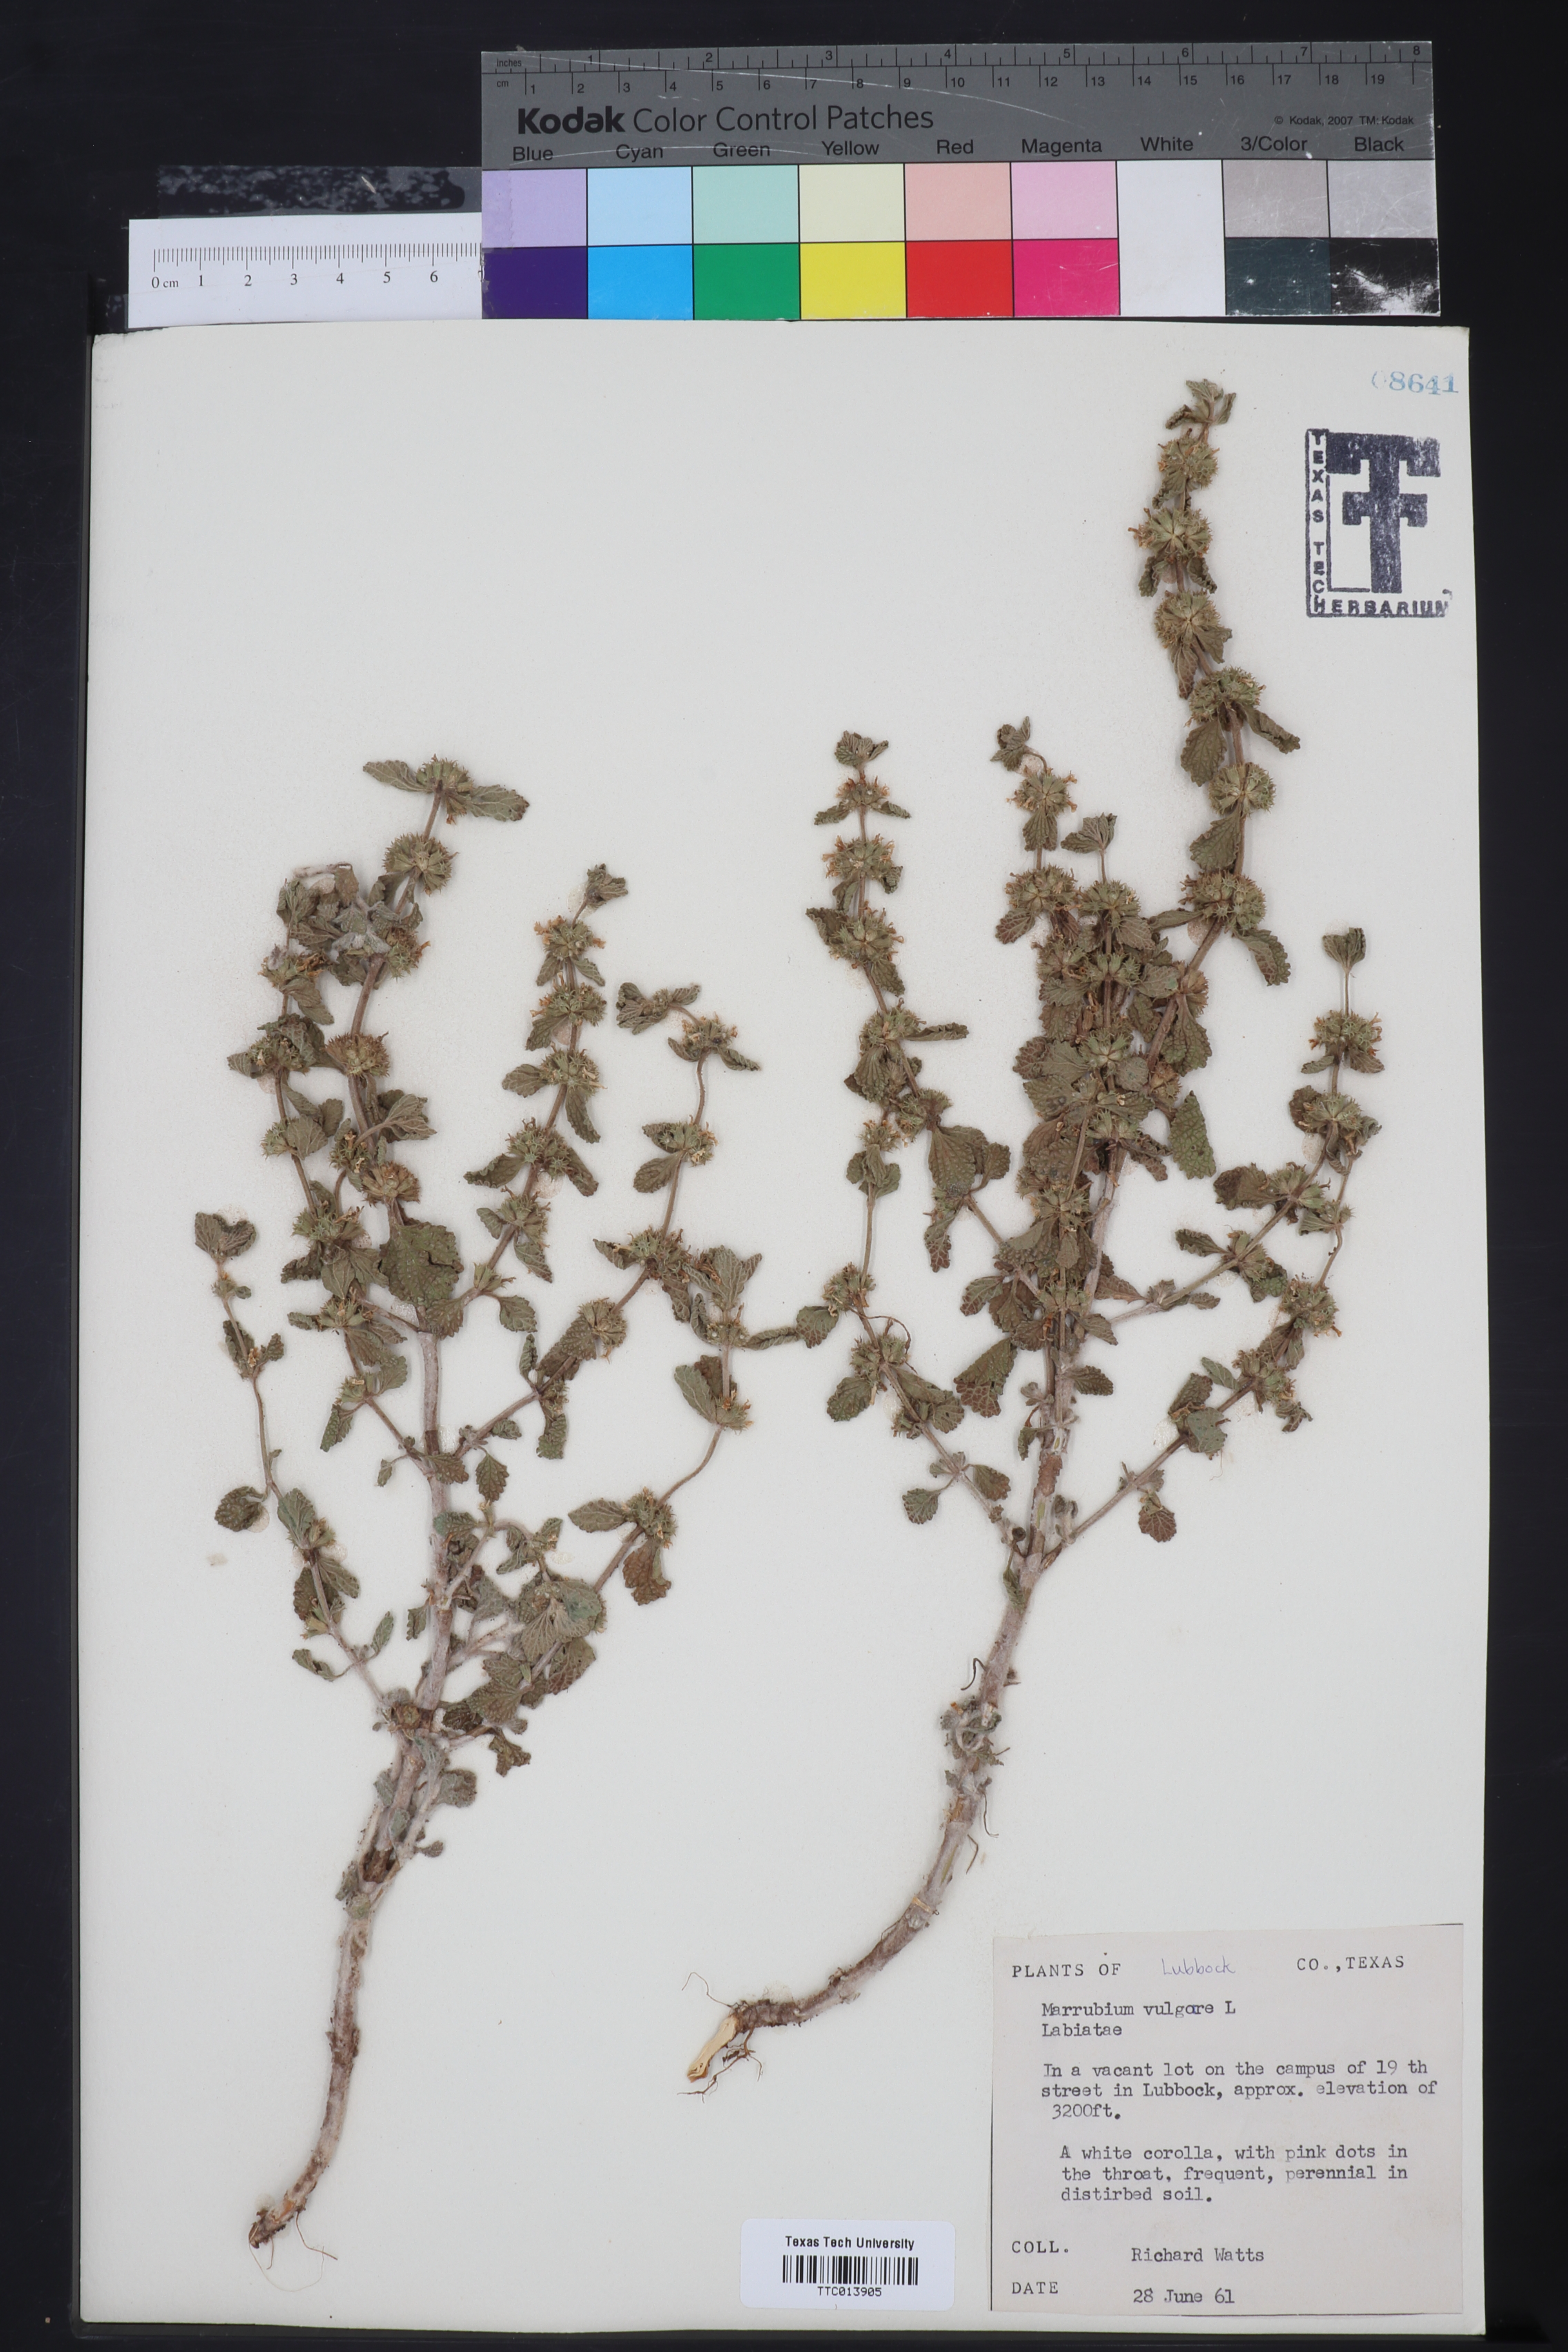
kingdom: Plantae
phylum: Tracheophyta
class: Magnoliopsida
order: Lamiales
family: Lamiaceae
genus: Marrubium
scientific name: Marrubium vulgare
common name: Horehound
